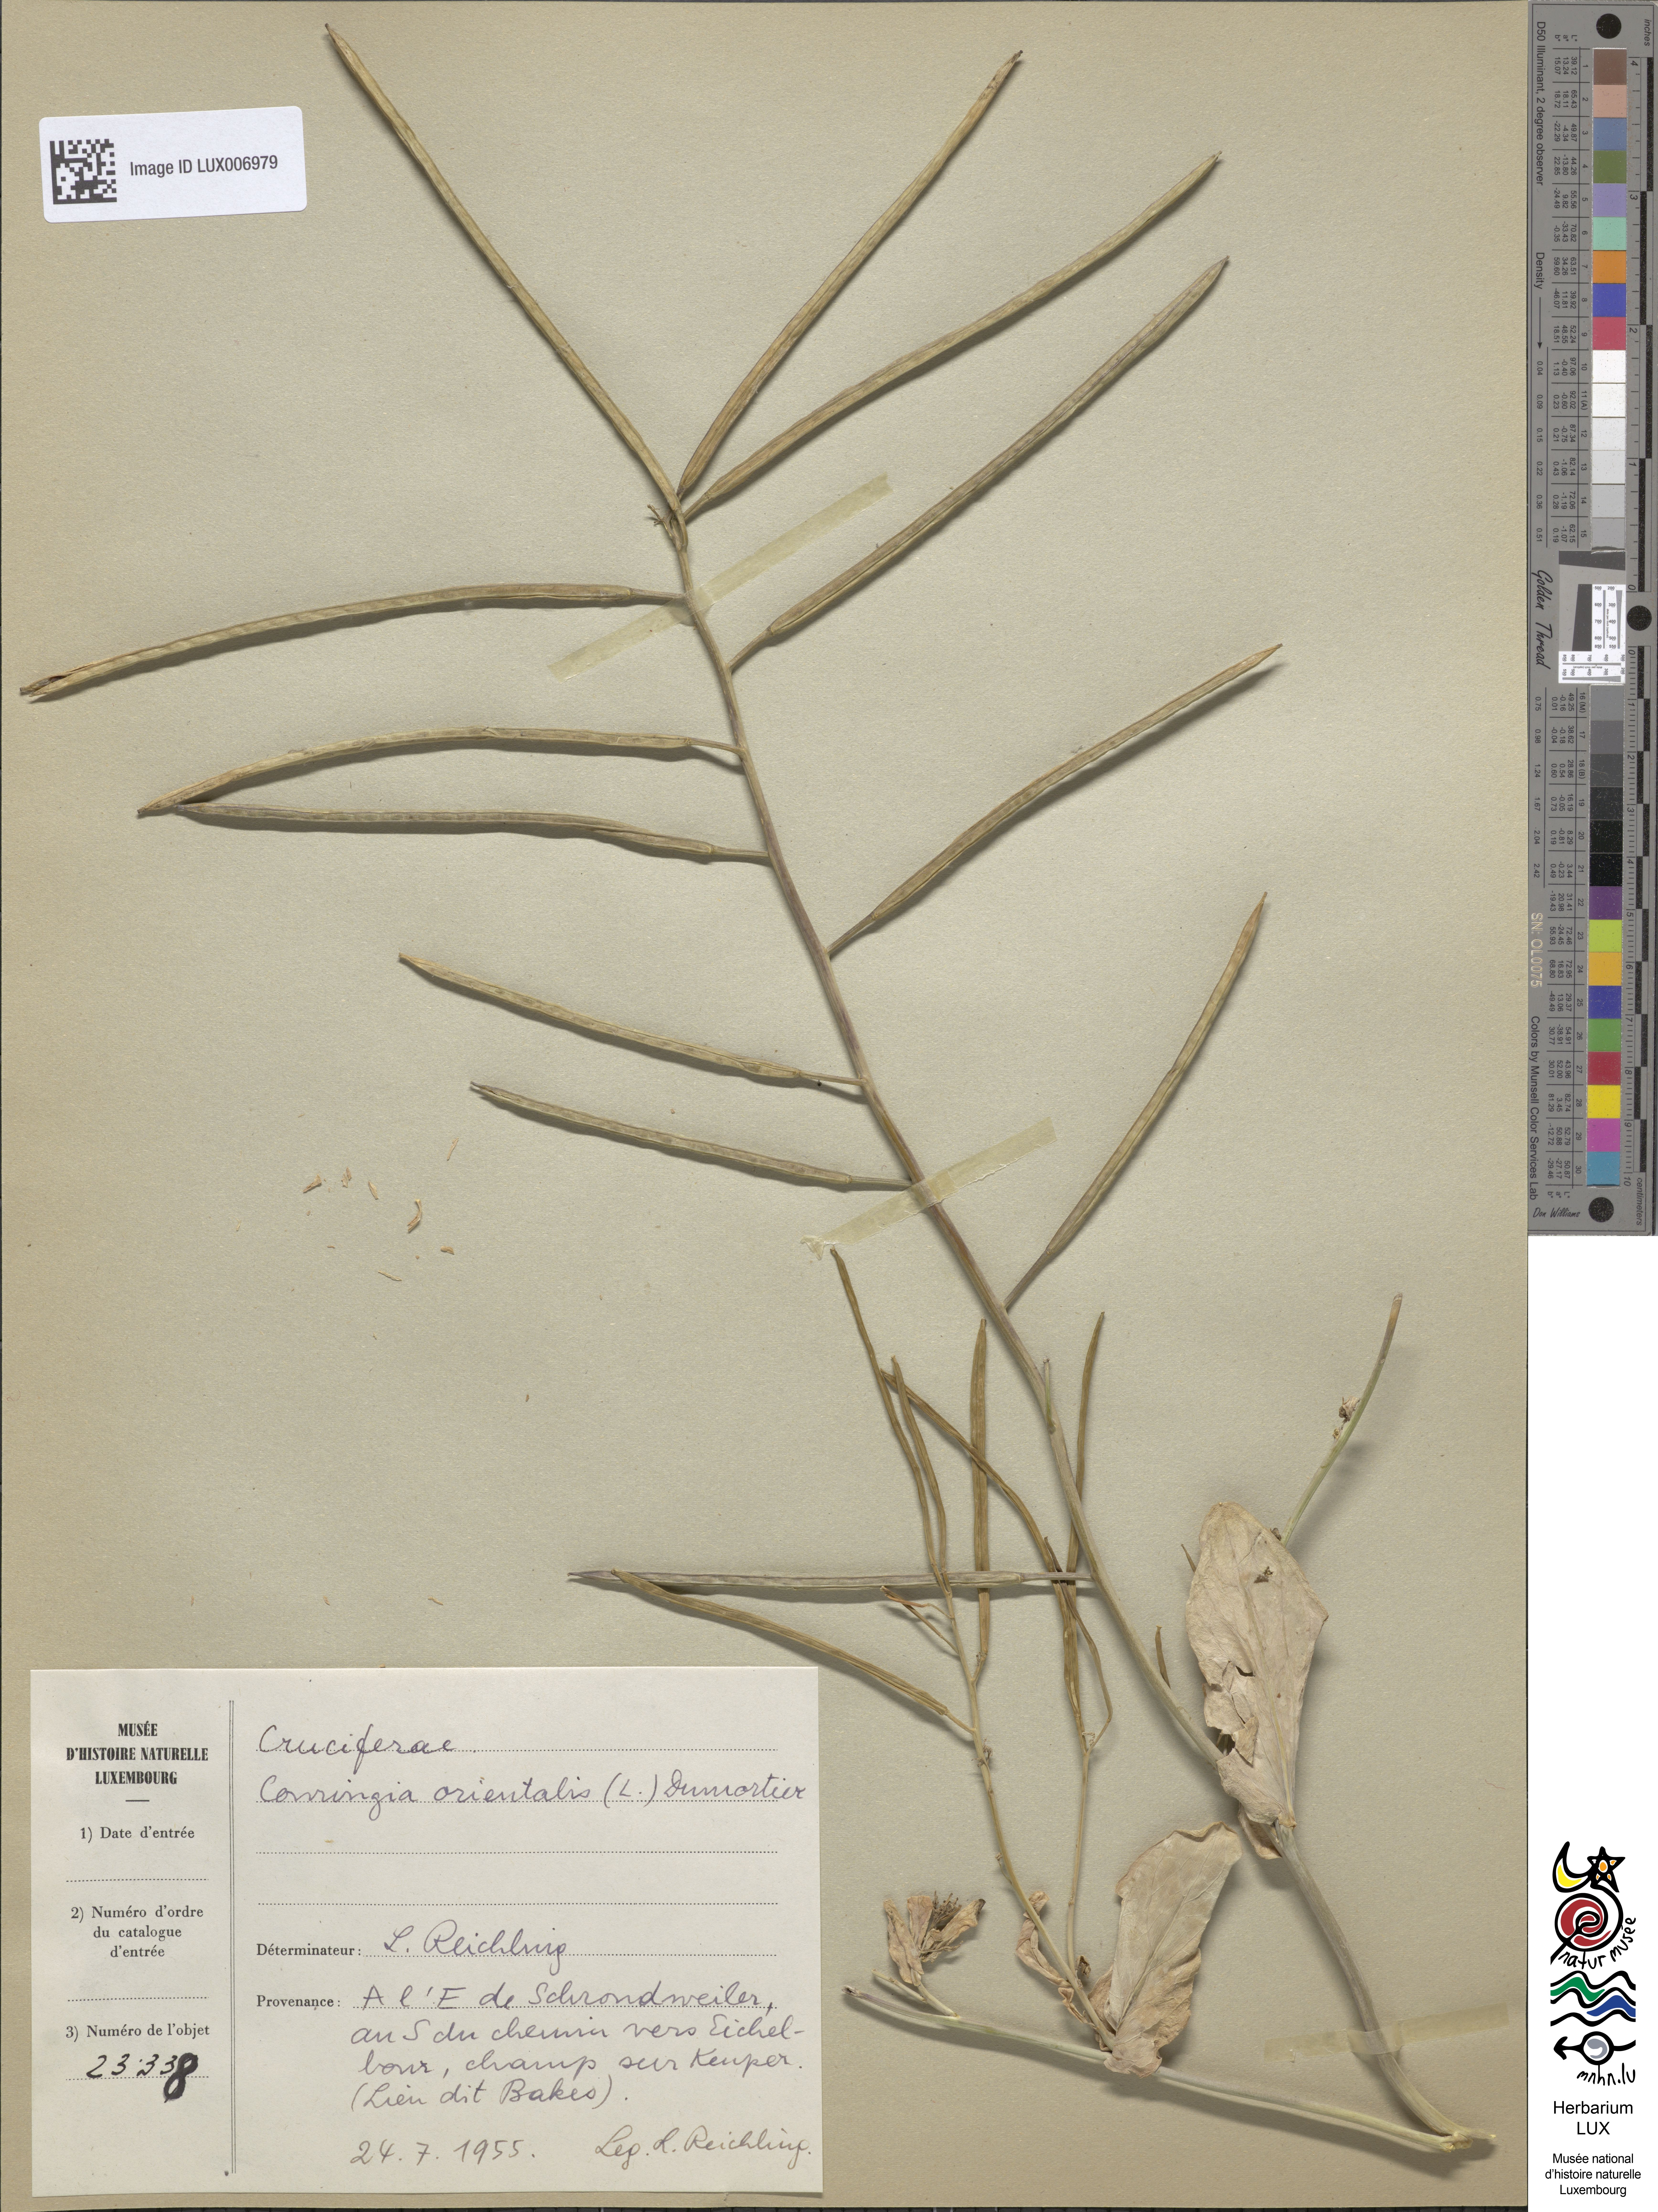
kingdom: Plantae
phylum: Tracheophyta
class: Magnoliopsida
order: Brassicales
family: Brassicaceae
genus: Conringia
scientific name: Conringia orientalis
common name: Hare's ear mustard
